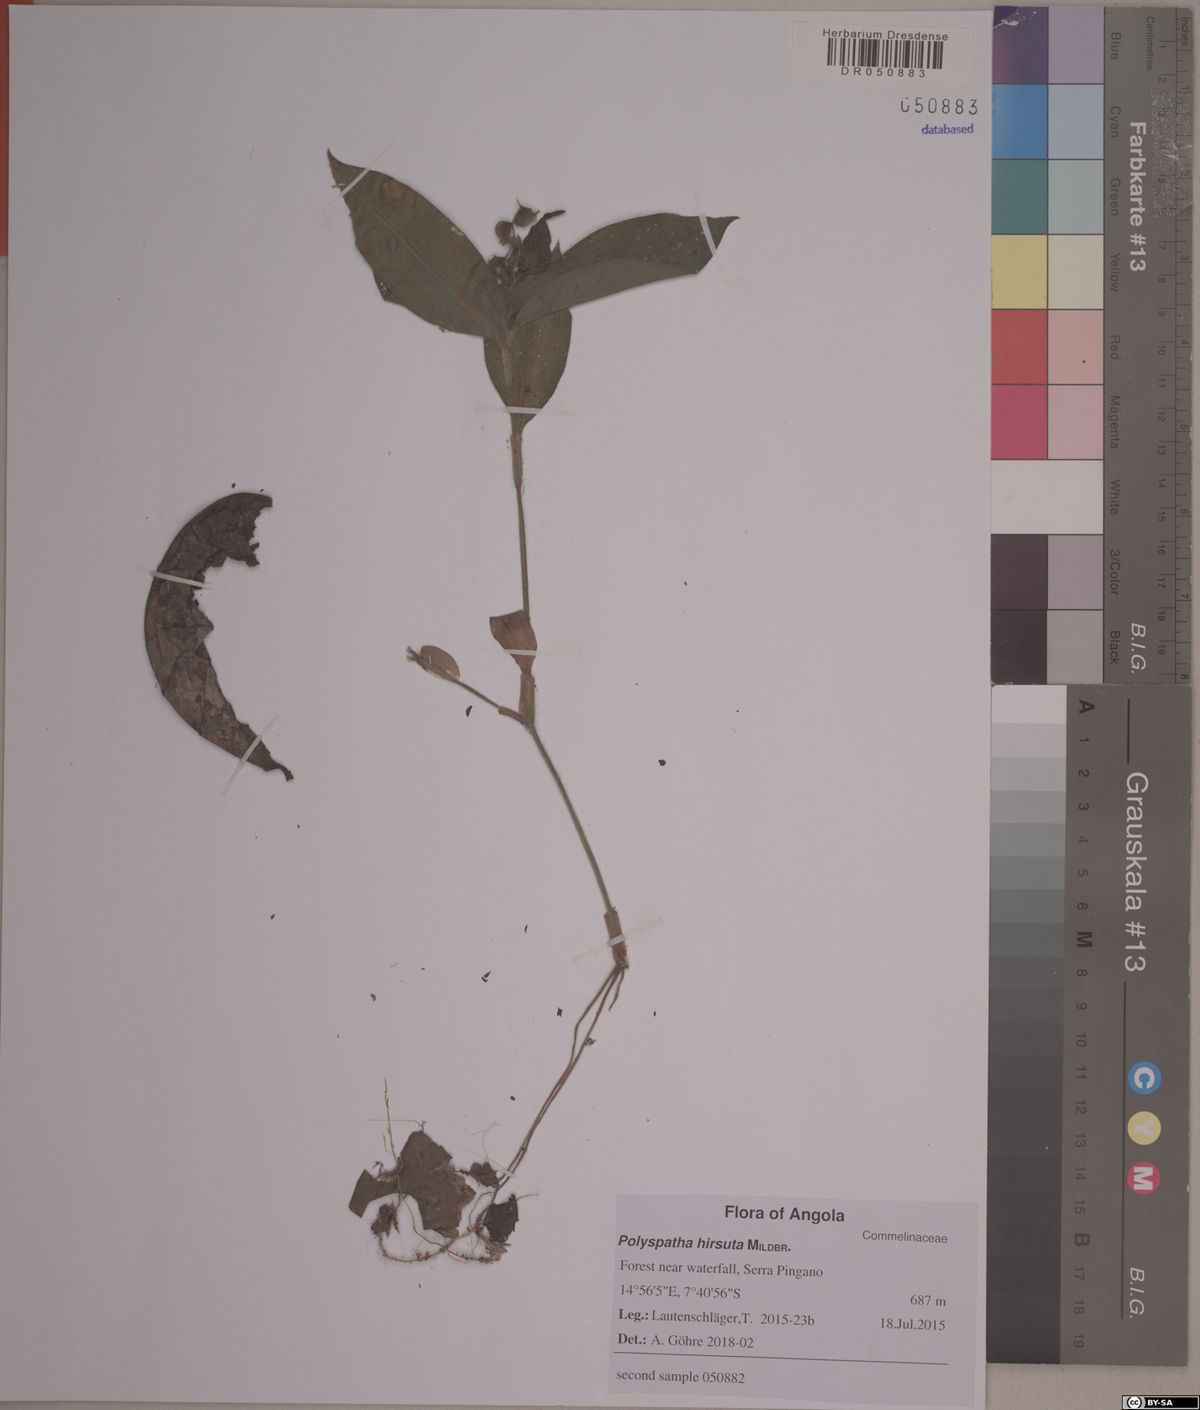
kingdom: Plantae
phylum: Tracheophyta
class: Liliopsida
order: Commelinales
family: Commelinaceae
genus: Polyspatha
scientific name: Polyspatha hirsuta
